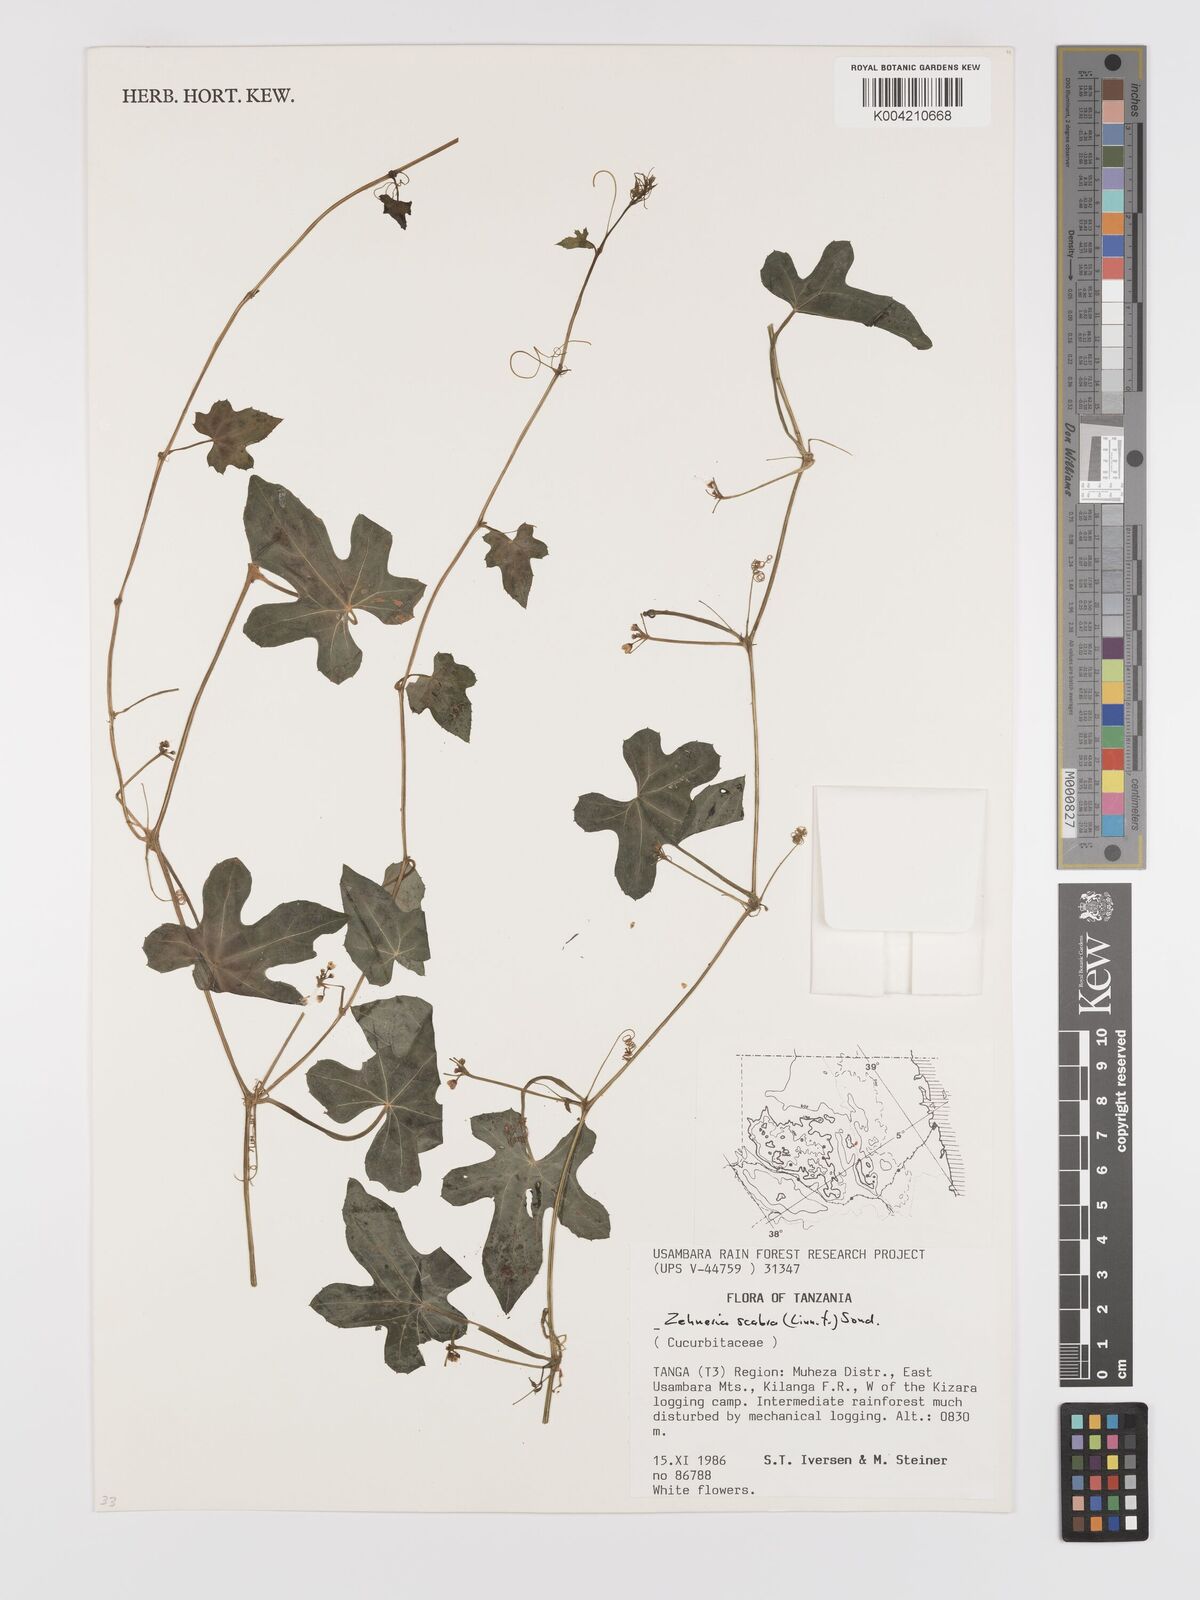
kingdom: Plantae
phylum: Tracheophyta
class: Magnoliopsida
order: Cucurbitales
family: Cucurbitaceae
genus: Zehneria
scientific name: Zehneria
